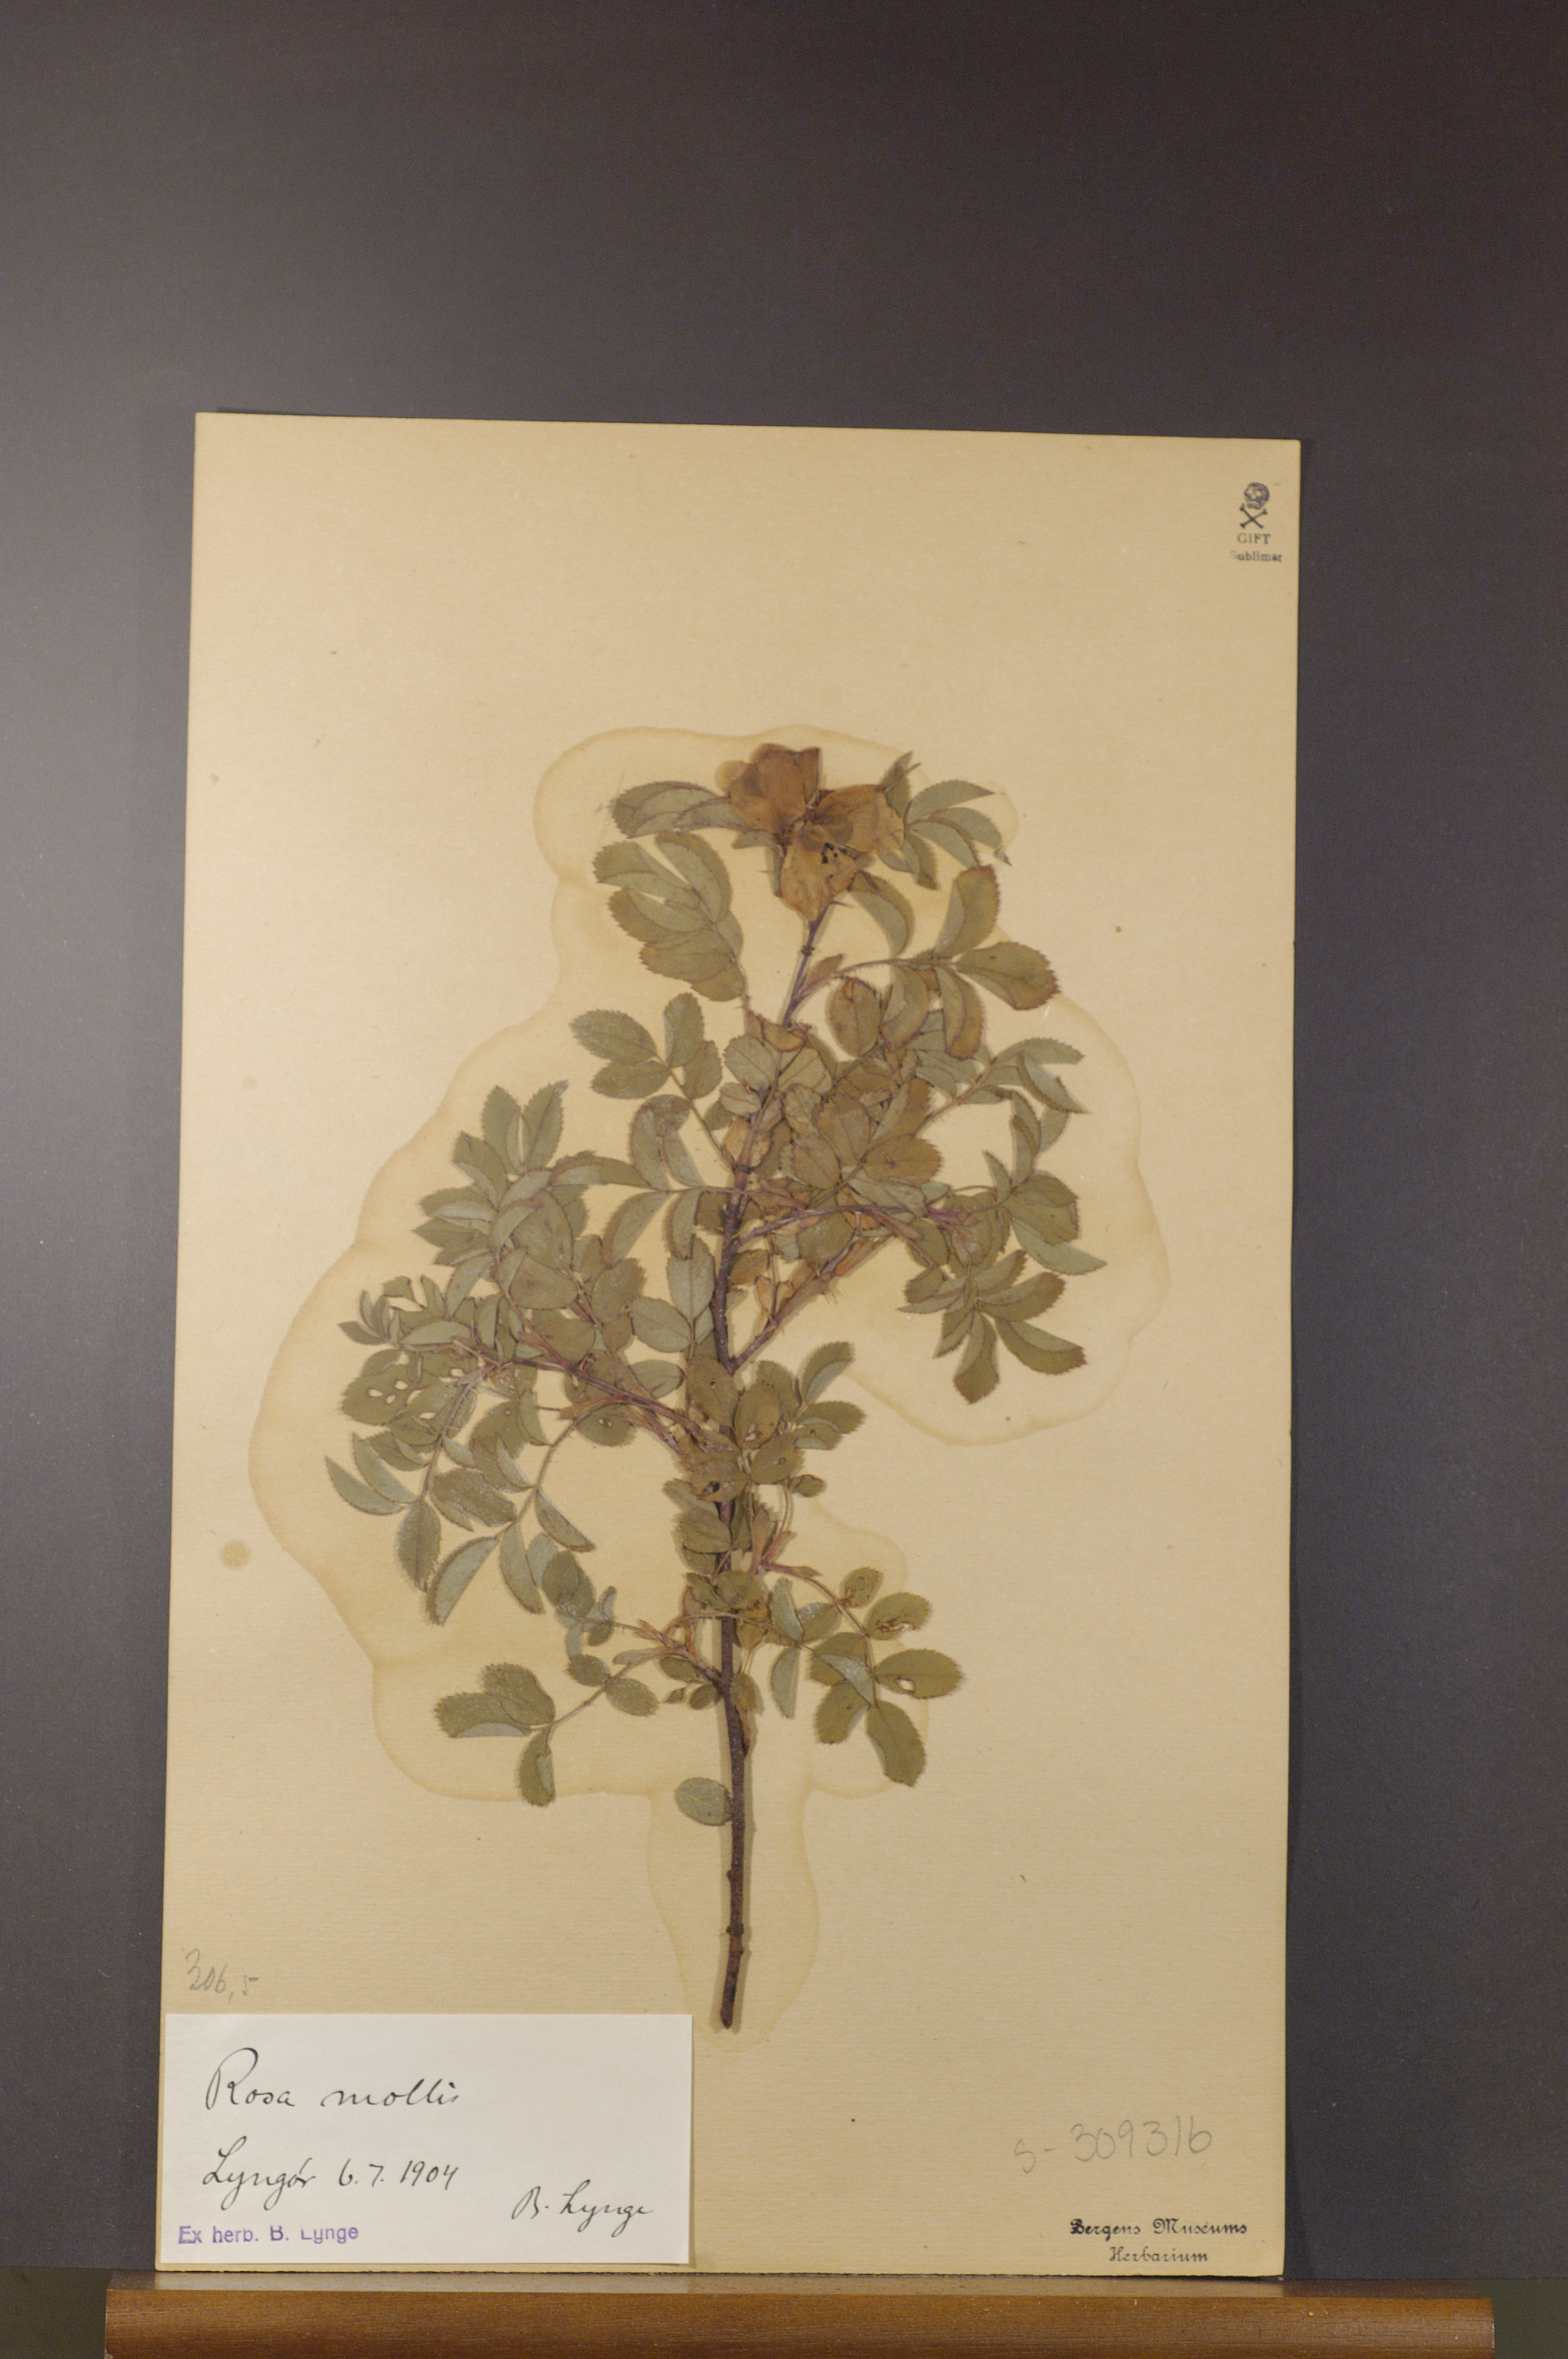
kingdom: Plantae
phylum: Tracheophyta
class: Magnoliopsida
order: Rosales
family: Rosaceae
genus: Rosa
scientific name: Rosa mollis
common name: Rose
